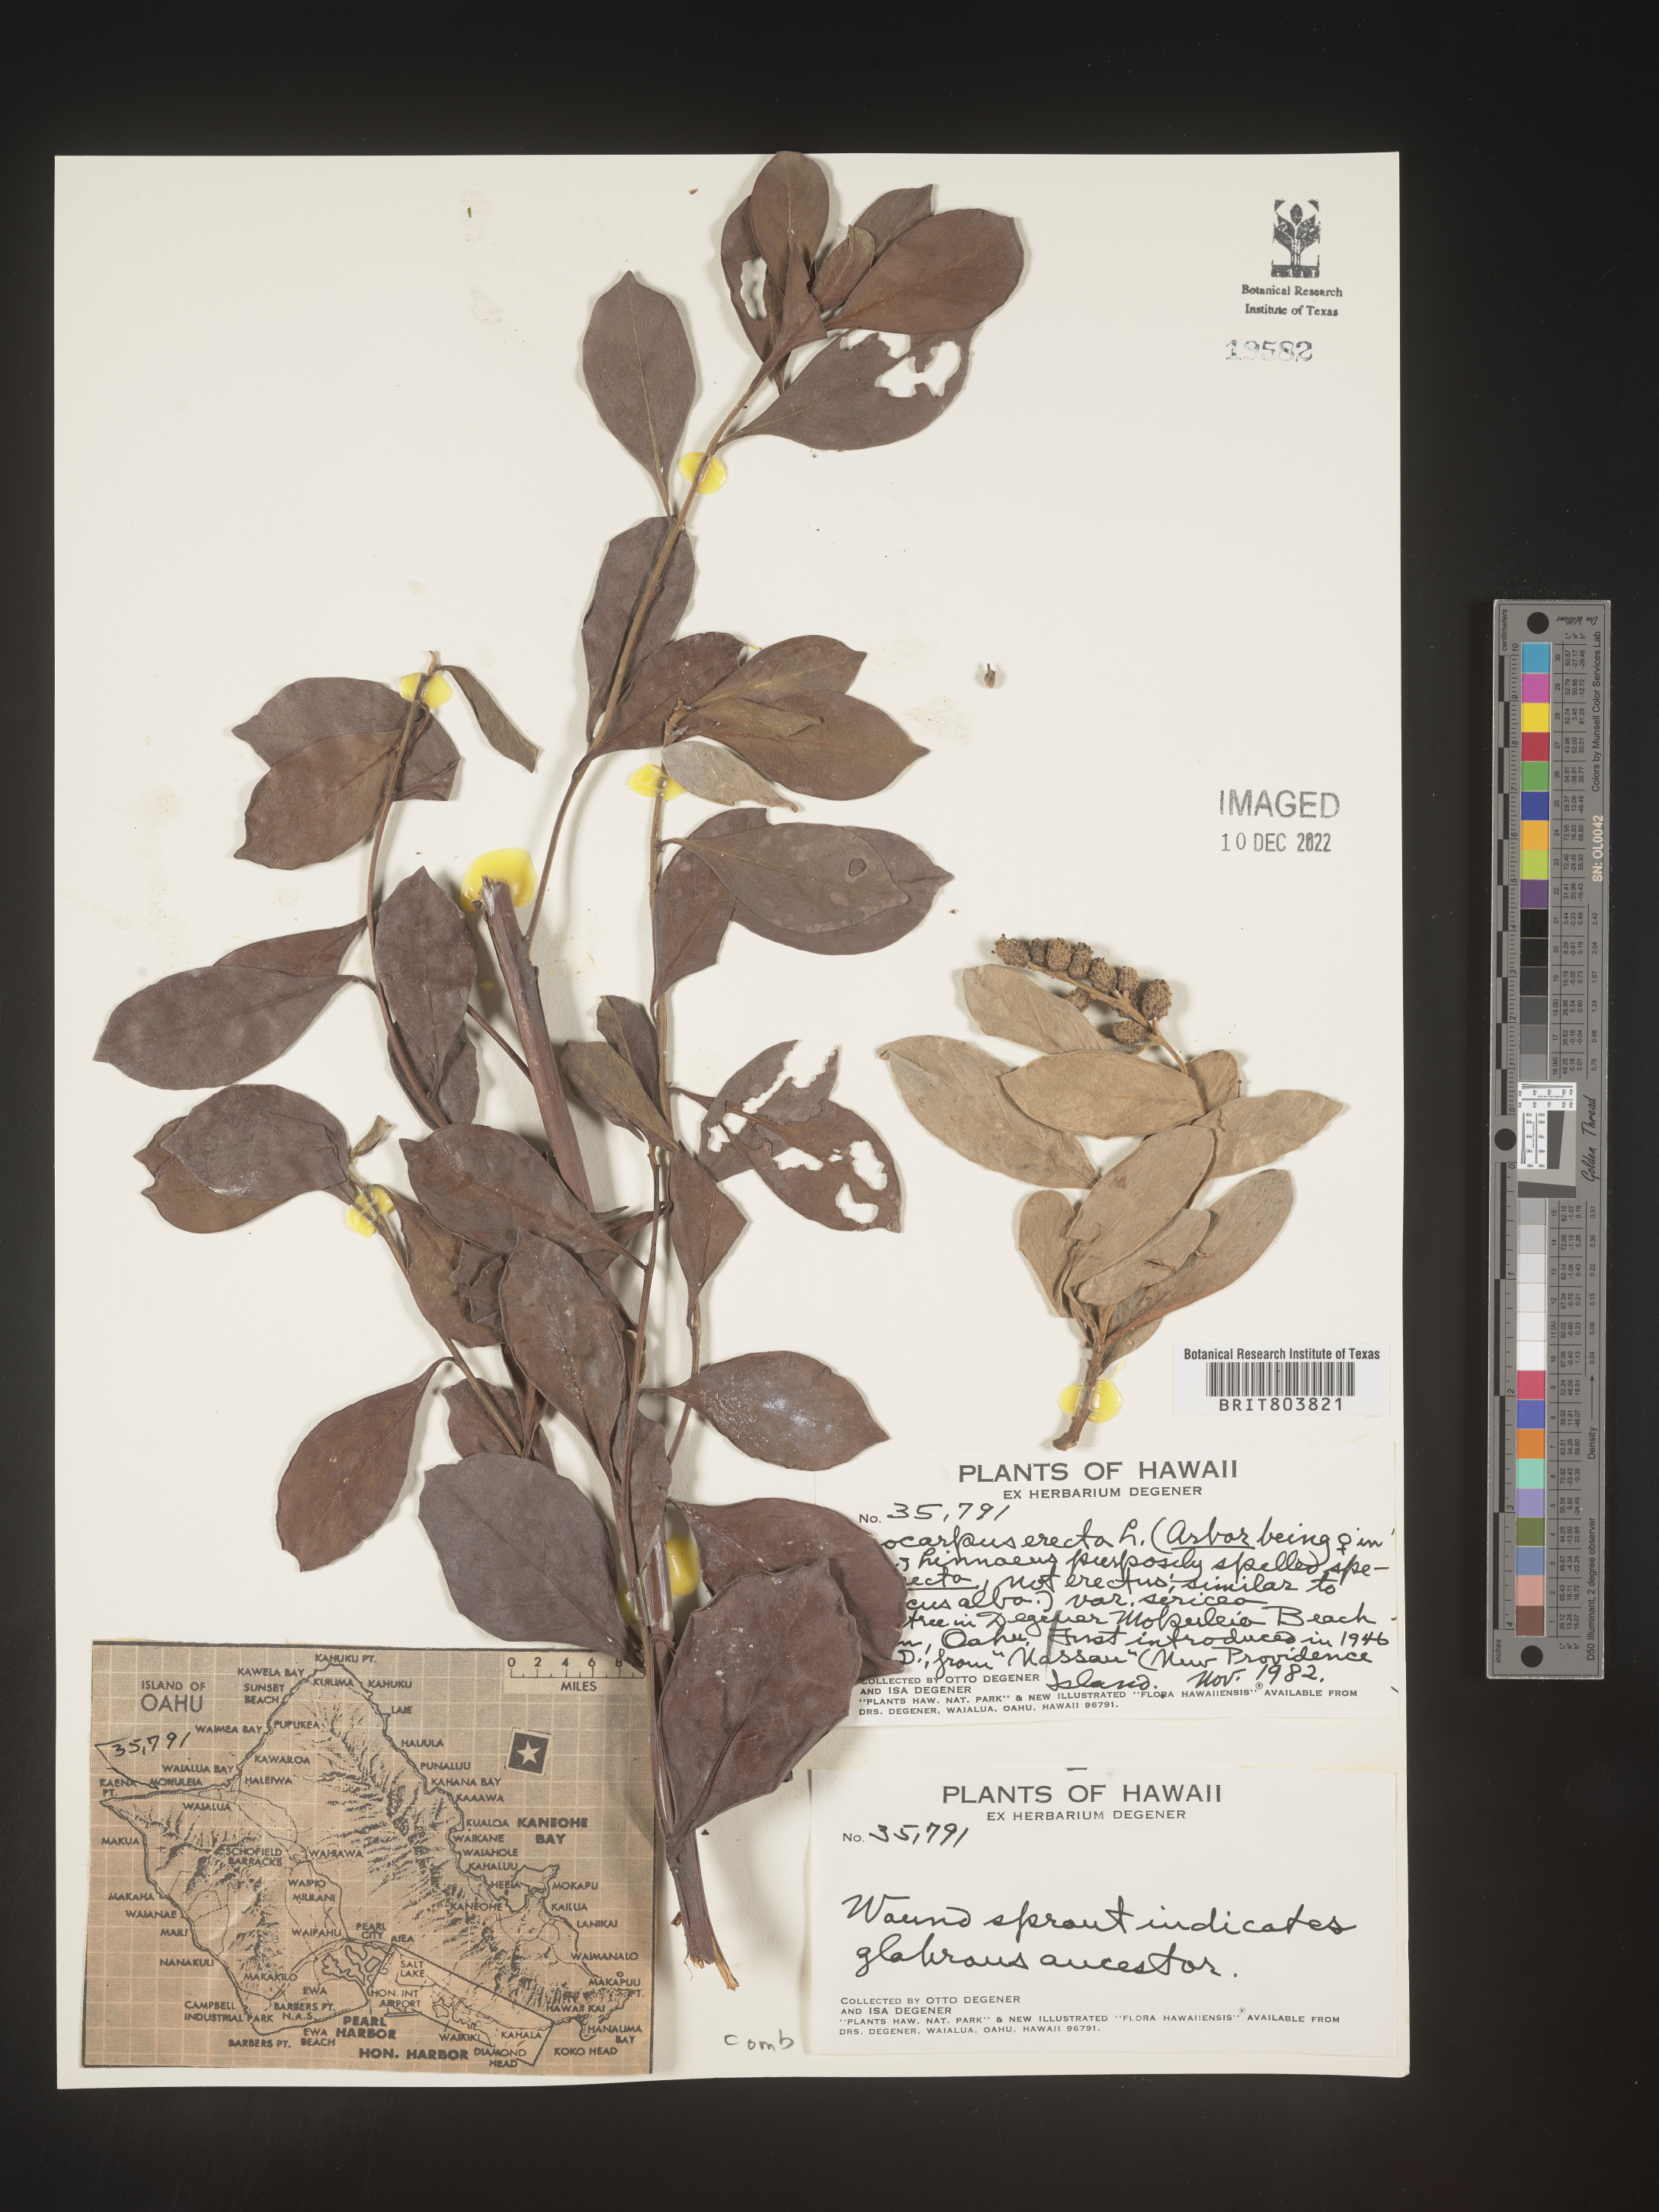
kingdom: Plantae
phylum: Tracheophyta
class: Magnoliopsida
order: Myrtales
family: Combretaceae
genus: Conocarpus
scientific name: Conocarpus
